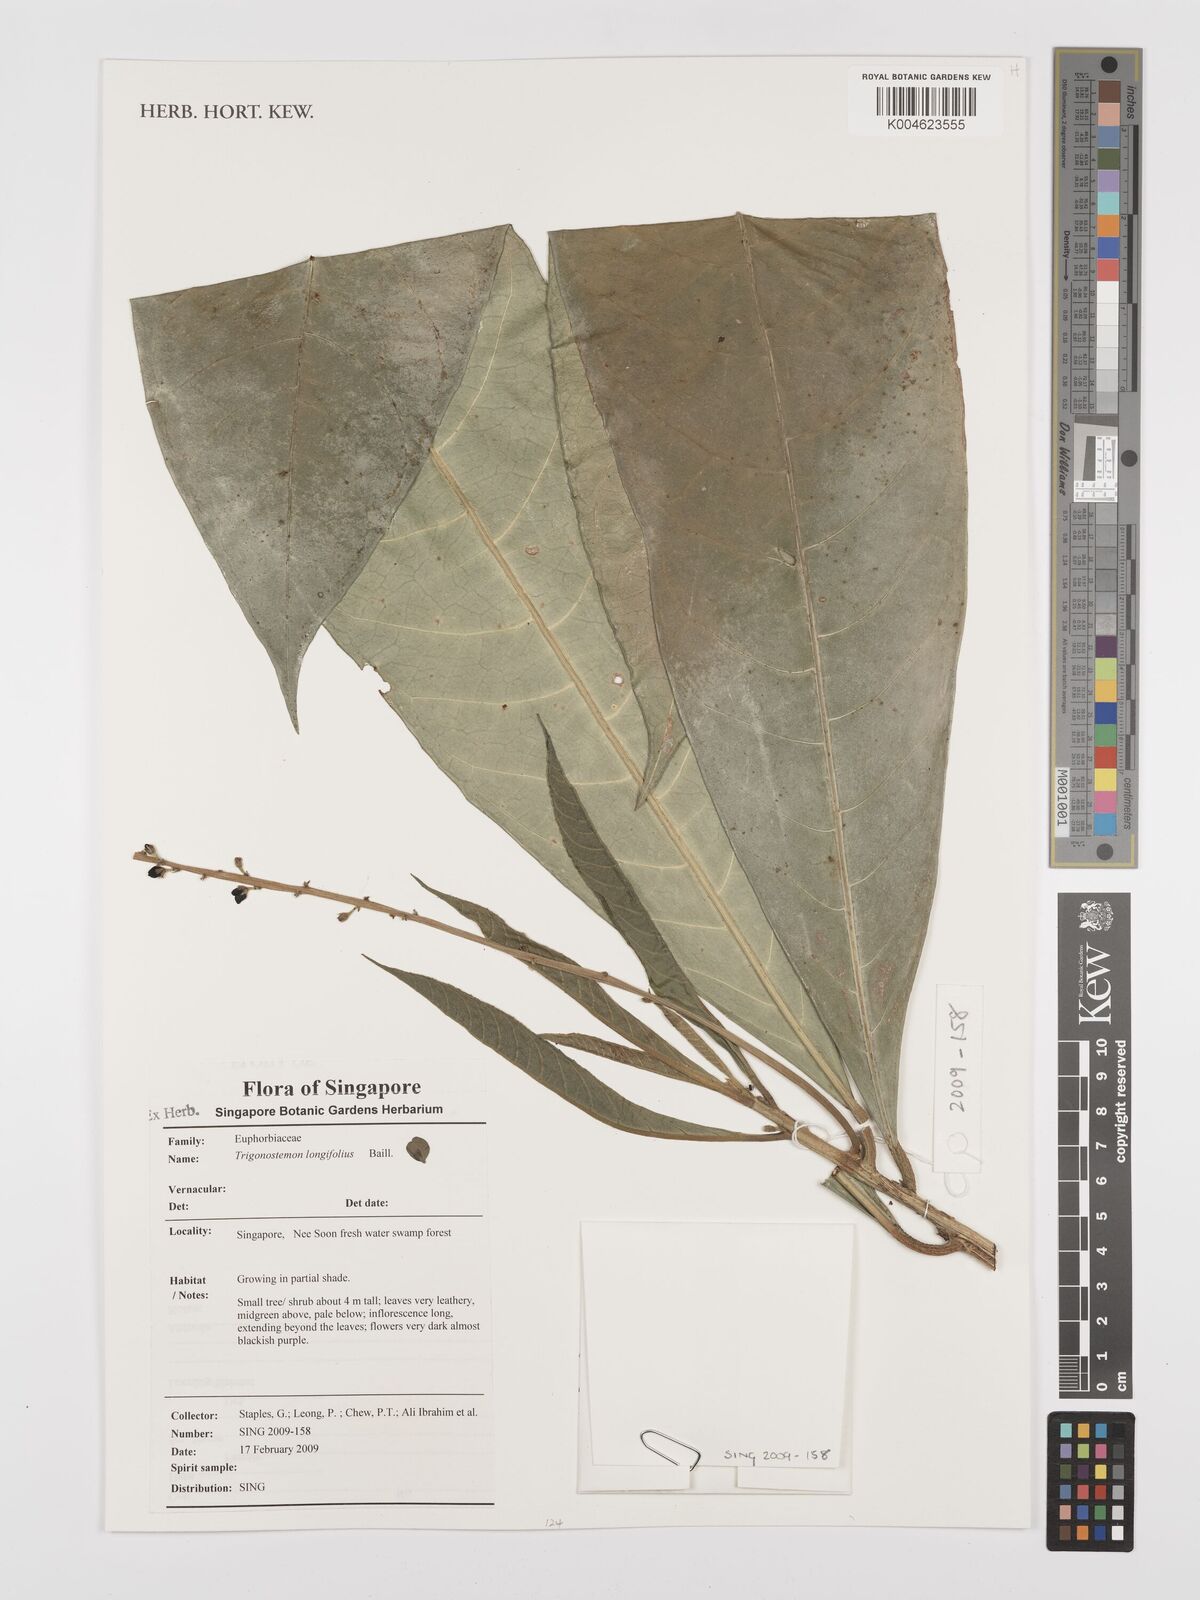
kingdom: Plantae
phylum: Tracheophyta
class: Magnoliopsida
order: Malpighiales
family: Euphorbiaceae
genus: Trigonostemon
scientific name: Trigonostemon longifolius
